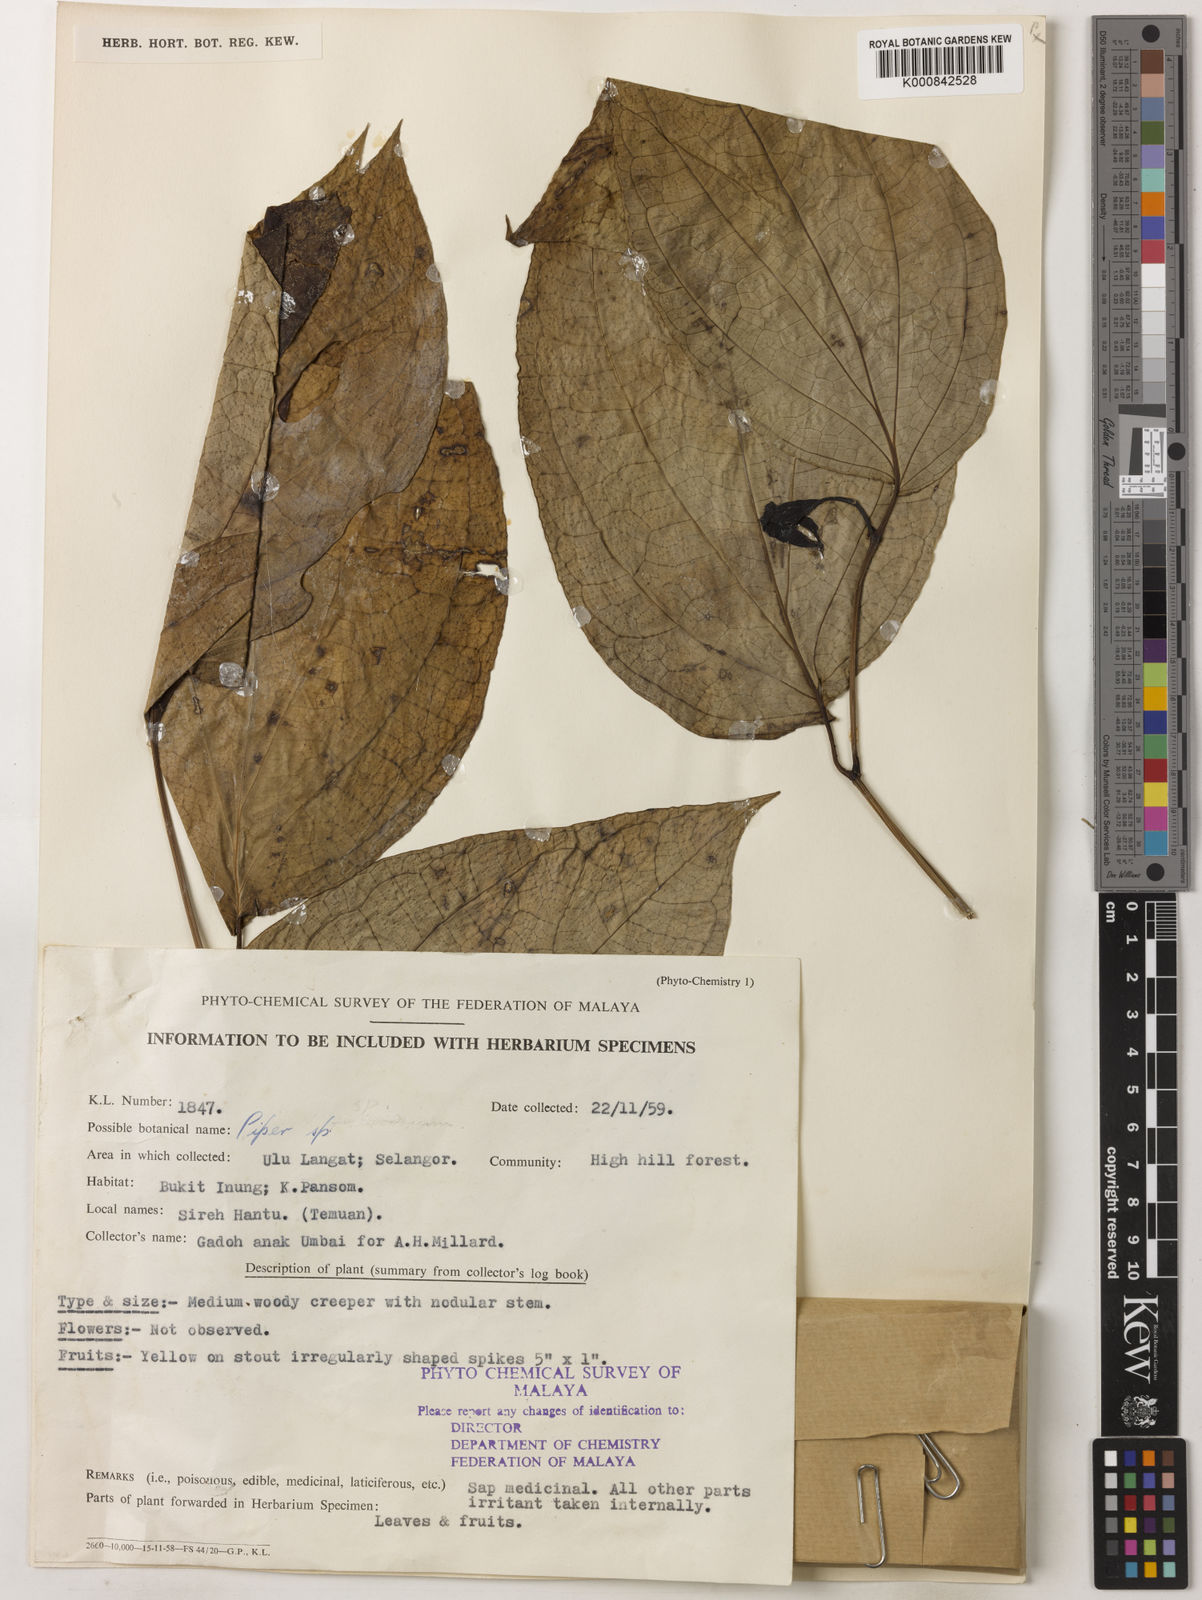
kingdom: Plantae
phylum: Tracheophyta
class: Magnoliopsida
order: Piperales
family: Piperaceae
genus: Piper
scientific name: Piper
